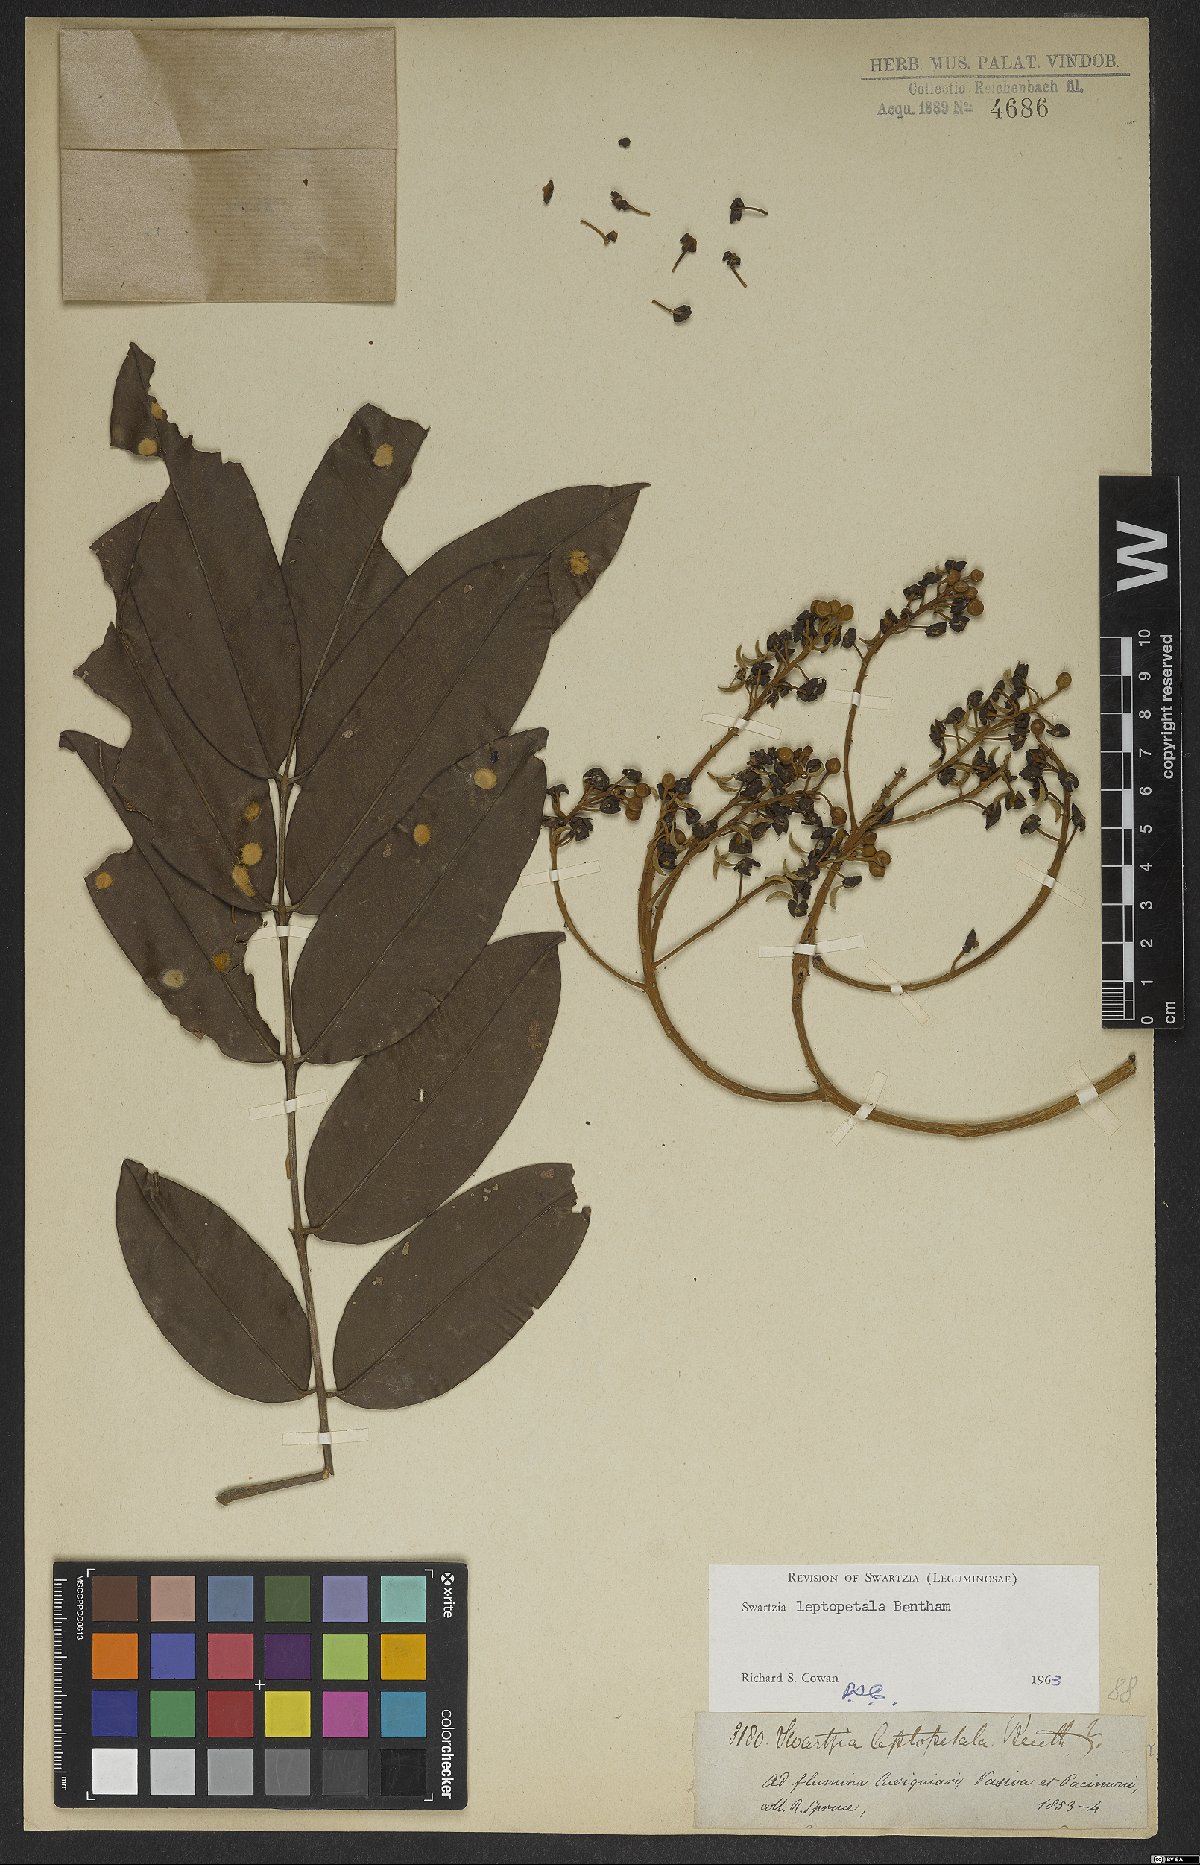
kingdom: Plantae
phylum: Tracheophyta
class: Magnoliopsida
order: Fabales
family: Fabaceae
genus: Swartzia
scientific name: Swartzia leptopetala
